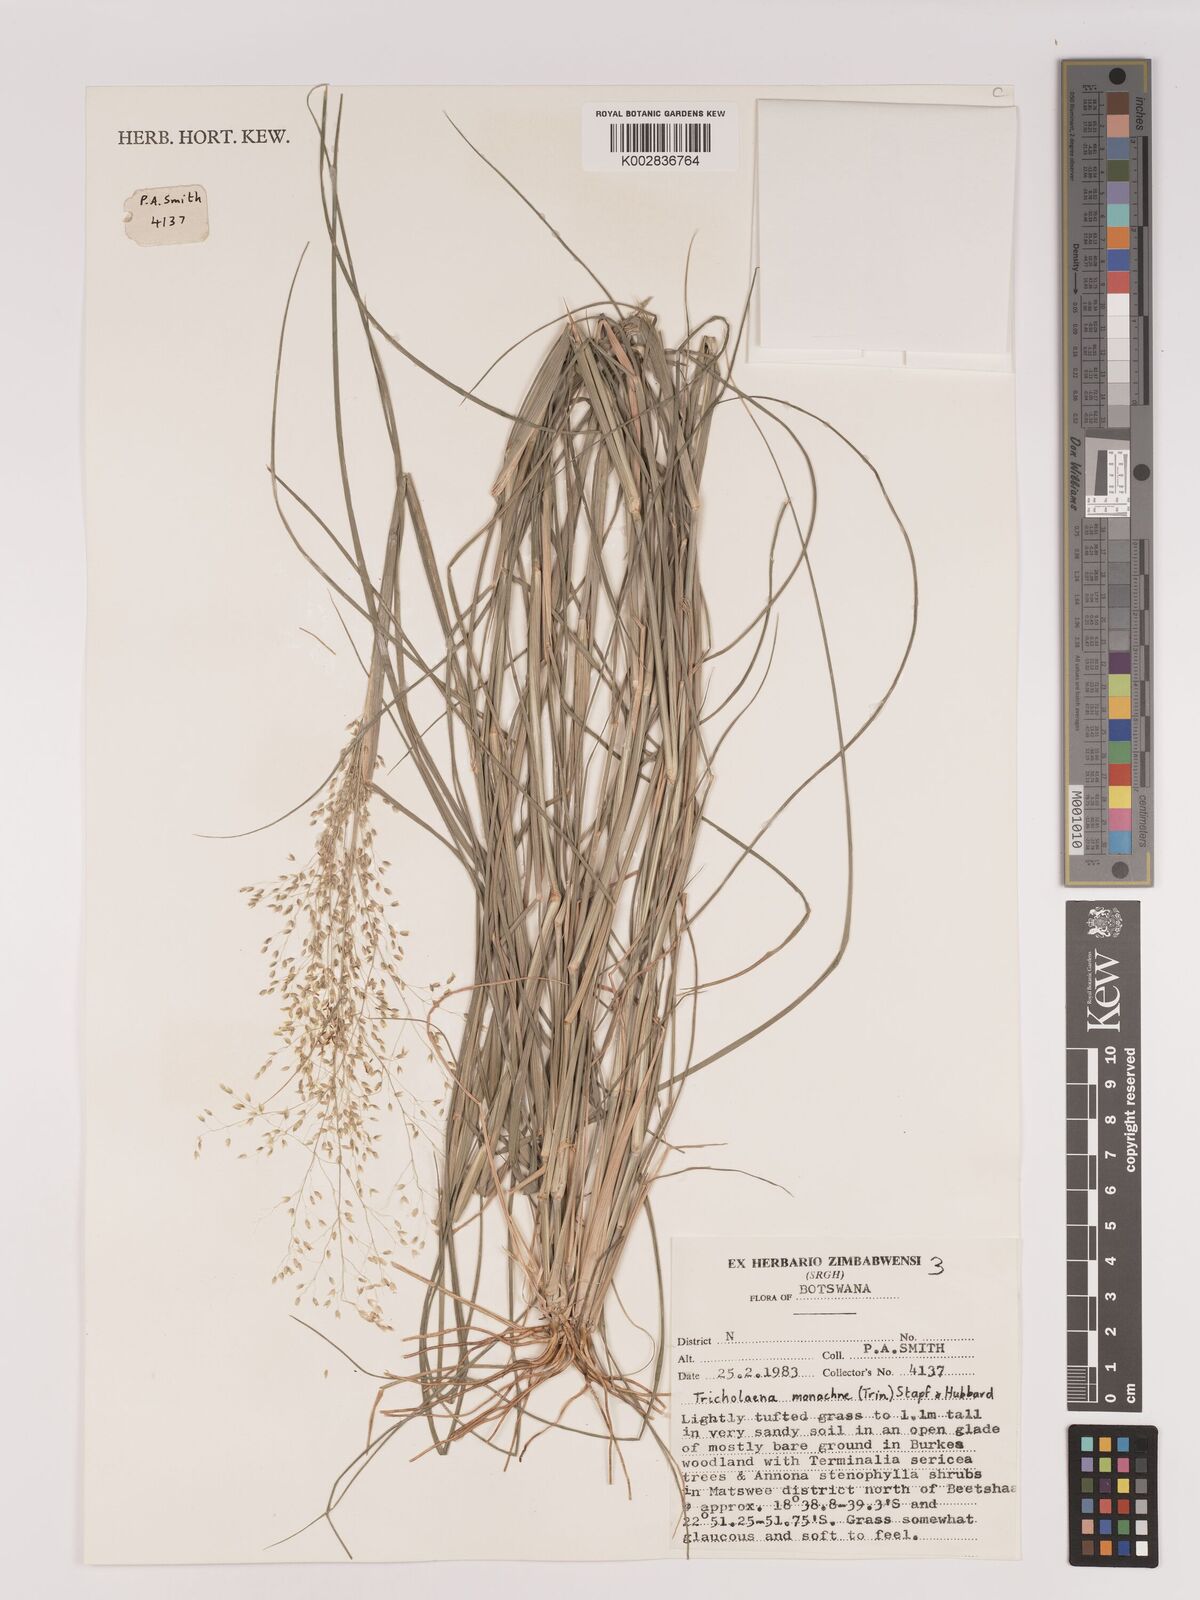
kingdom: Plantae
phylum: Tracheophyta
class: Liliopsida
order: Poales
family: Poaceae
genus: Tricholaena
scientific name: Tricholaena monachne
